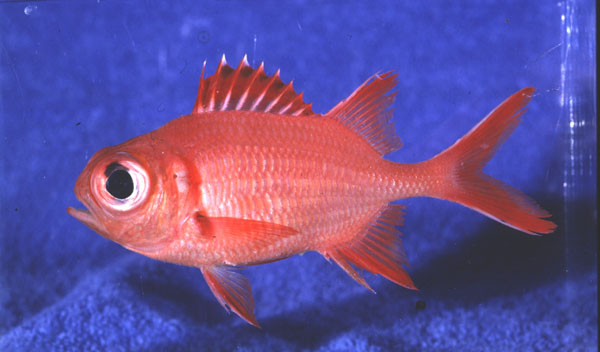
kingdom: Animalia
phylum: Chordata
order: Beryciformes
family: Holocentridae
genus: Myripristis
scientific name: Myripristis vittata
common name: Immaculate squirrelfish
